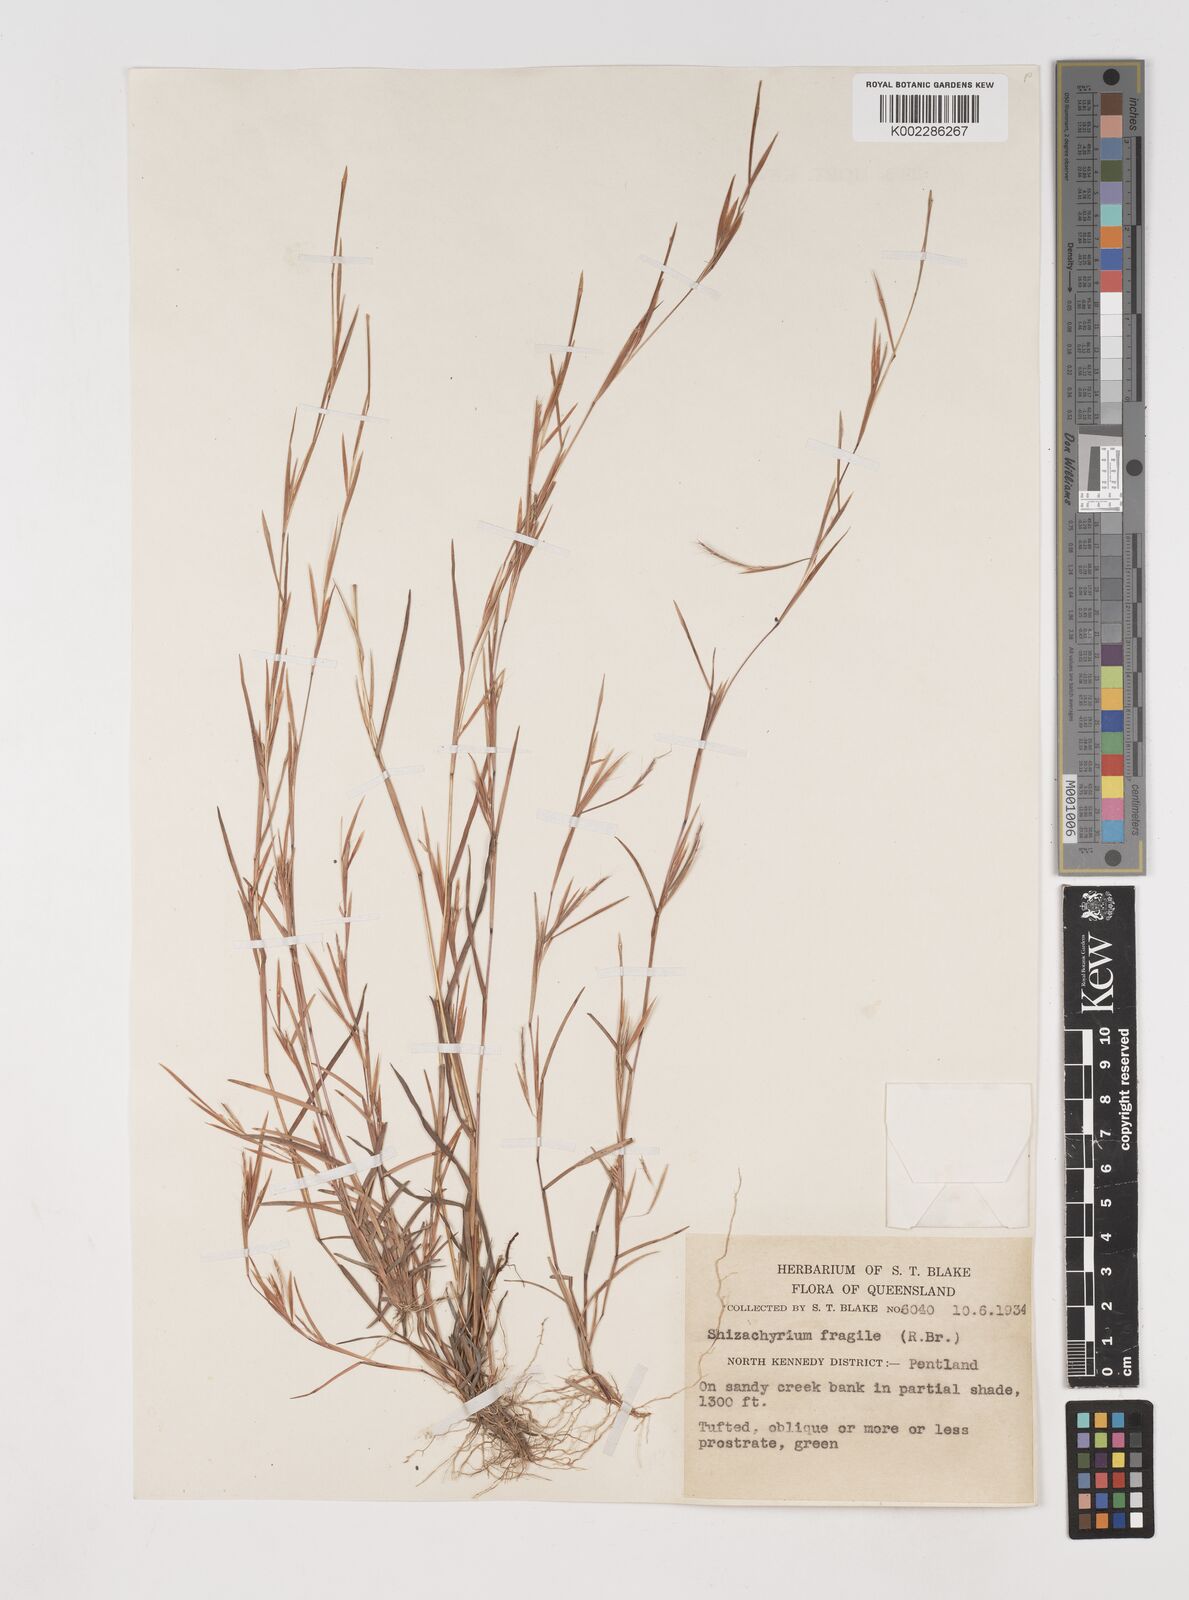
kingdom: Plantae
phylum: Tracheophyta
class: Liliopsida
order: Poales
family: Poaceae
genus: Schizachyrium
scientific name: Schizachyrium pseudeulalia
